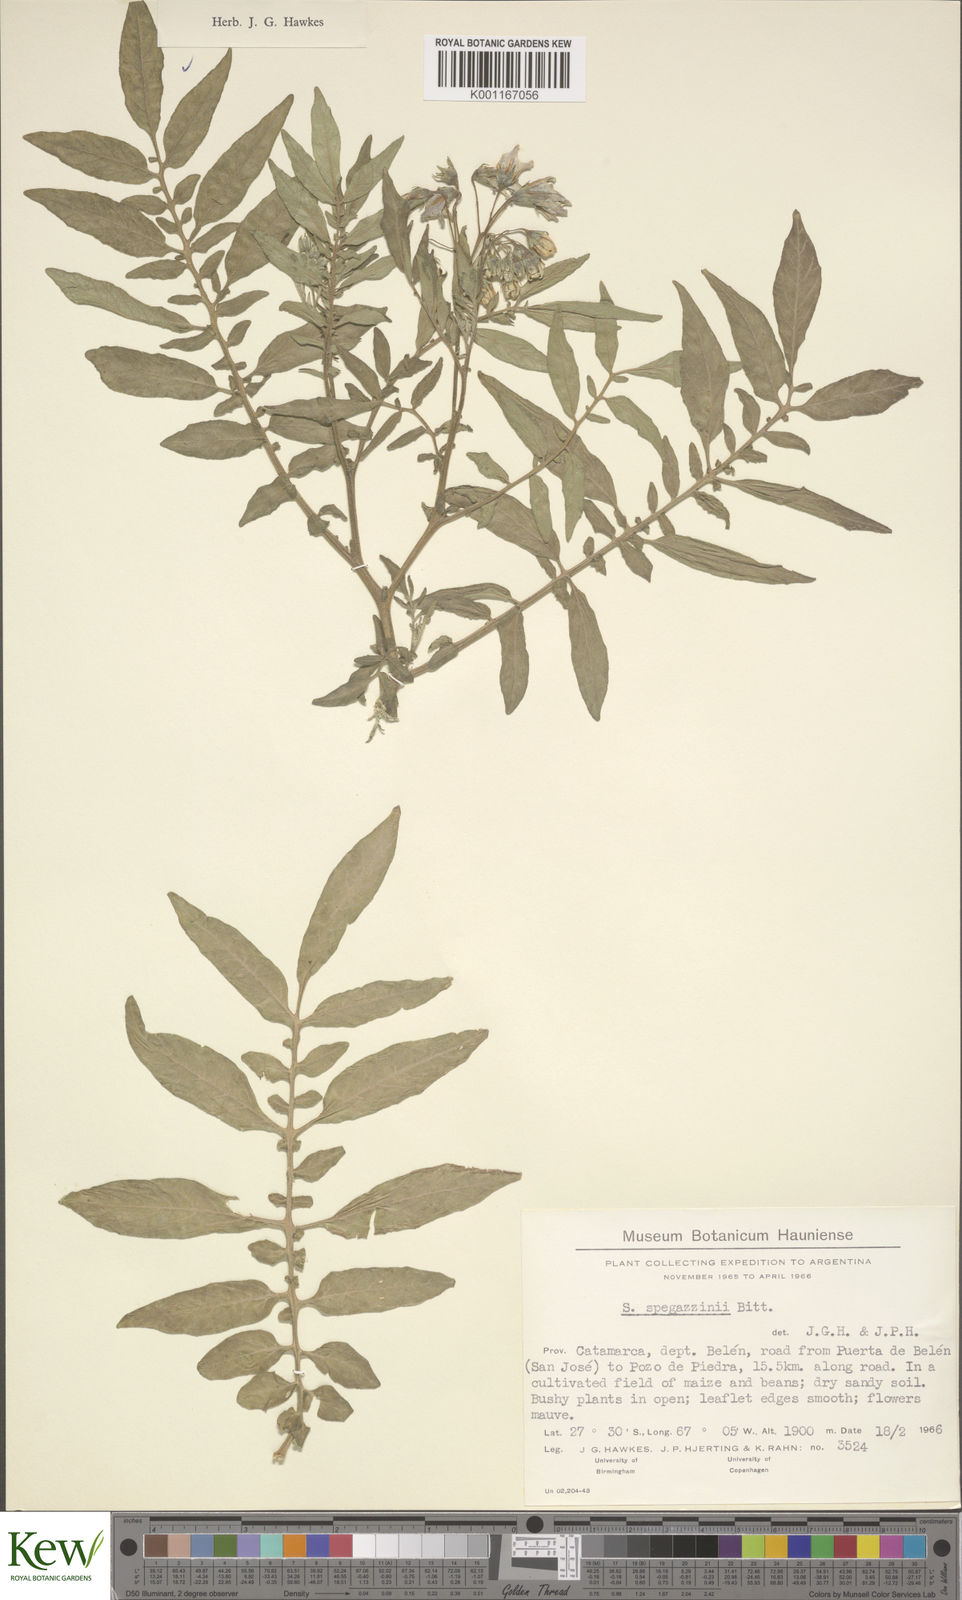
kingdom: Plantae
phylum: Tracheophyta
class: Magnoliopsida
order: Solanales
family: Solanaceae
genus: Solanum
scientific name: Solanum brevicaule
